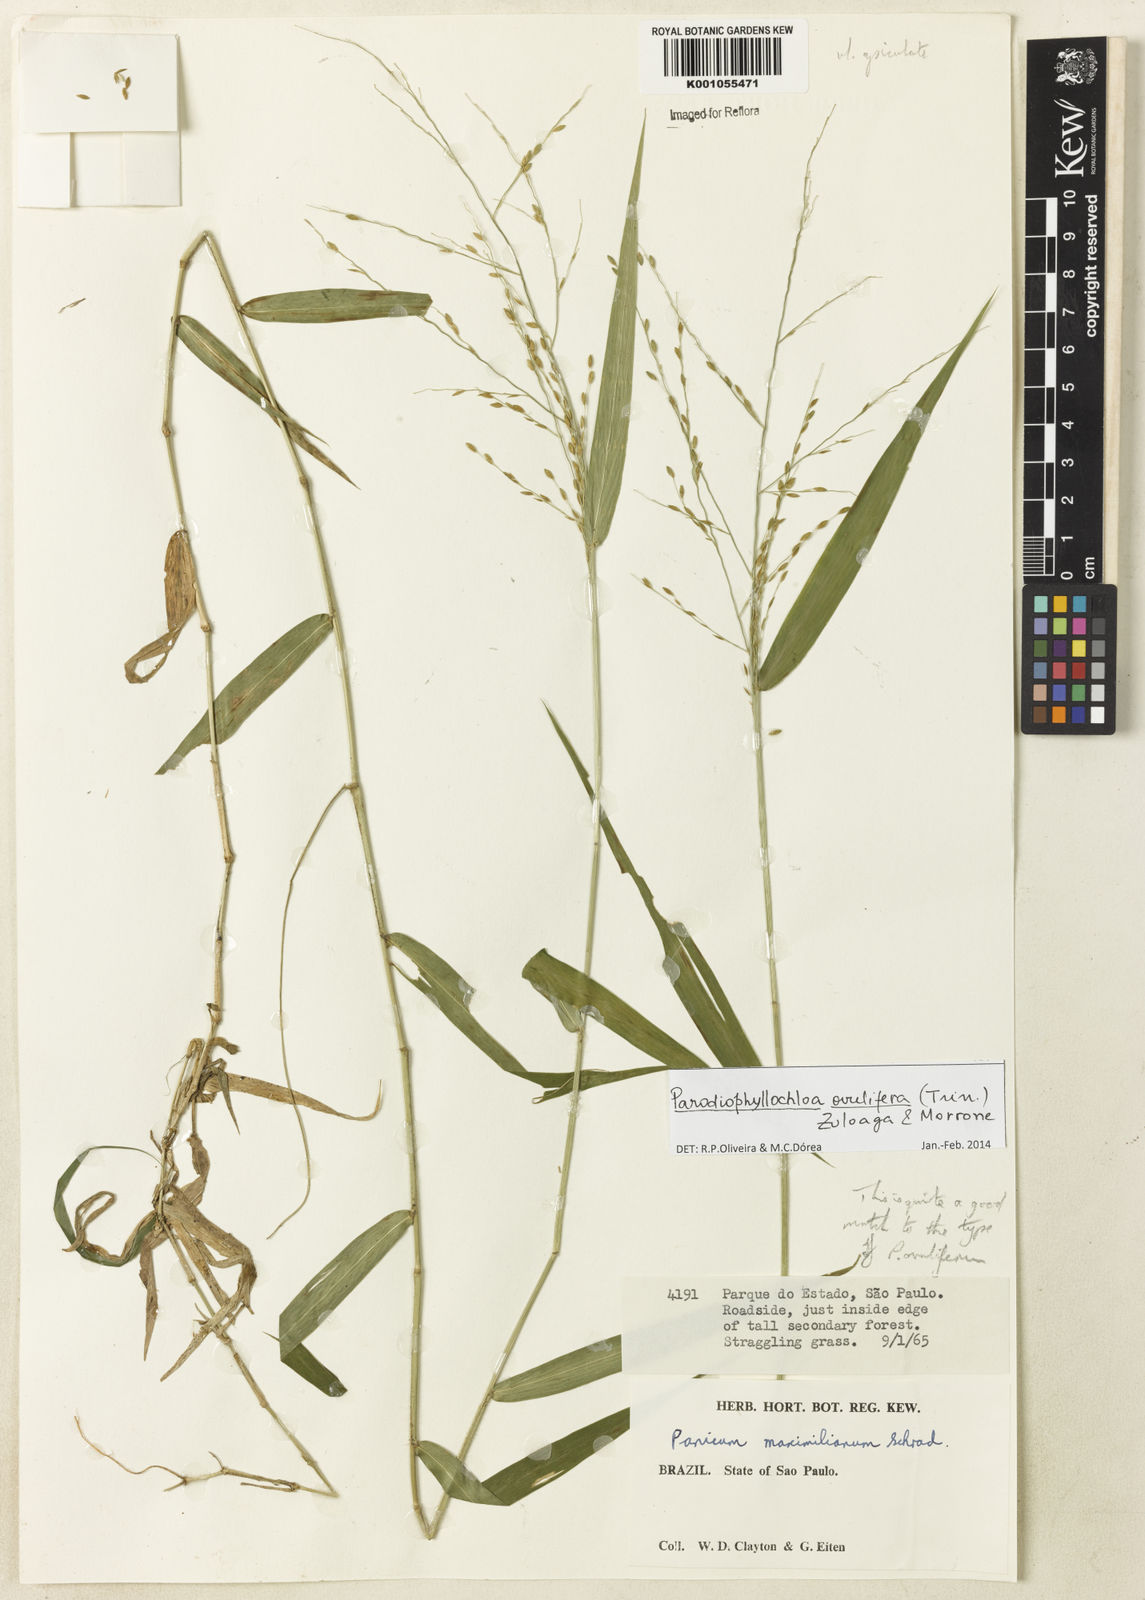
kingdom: Plantae
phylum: Tracheophyta
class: Liliopsida
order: Poales
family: Poaceae
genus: Parodiophyllochloa
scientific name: Parodiophyllochloa ovulifera
